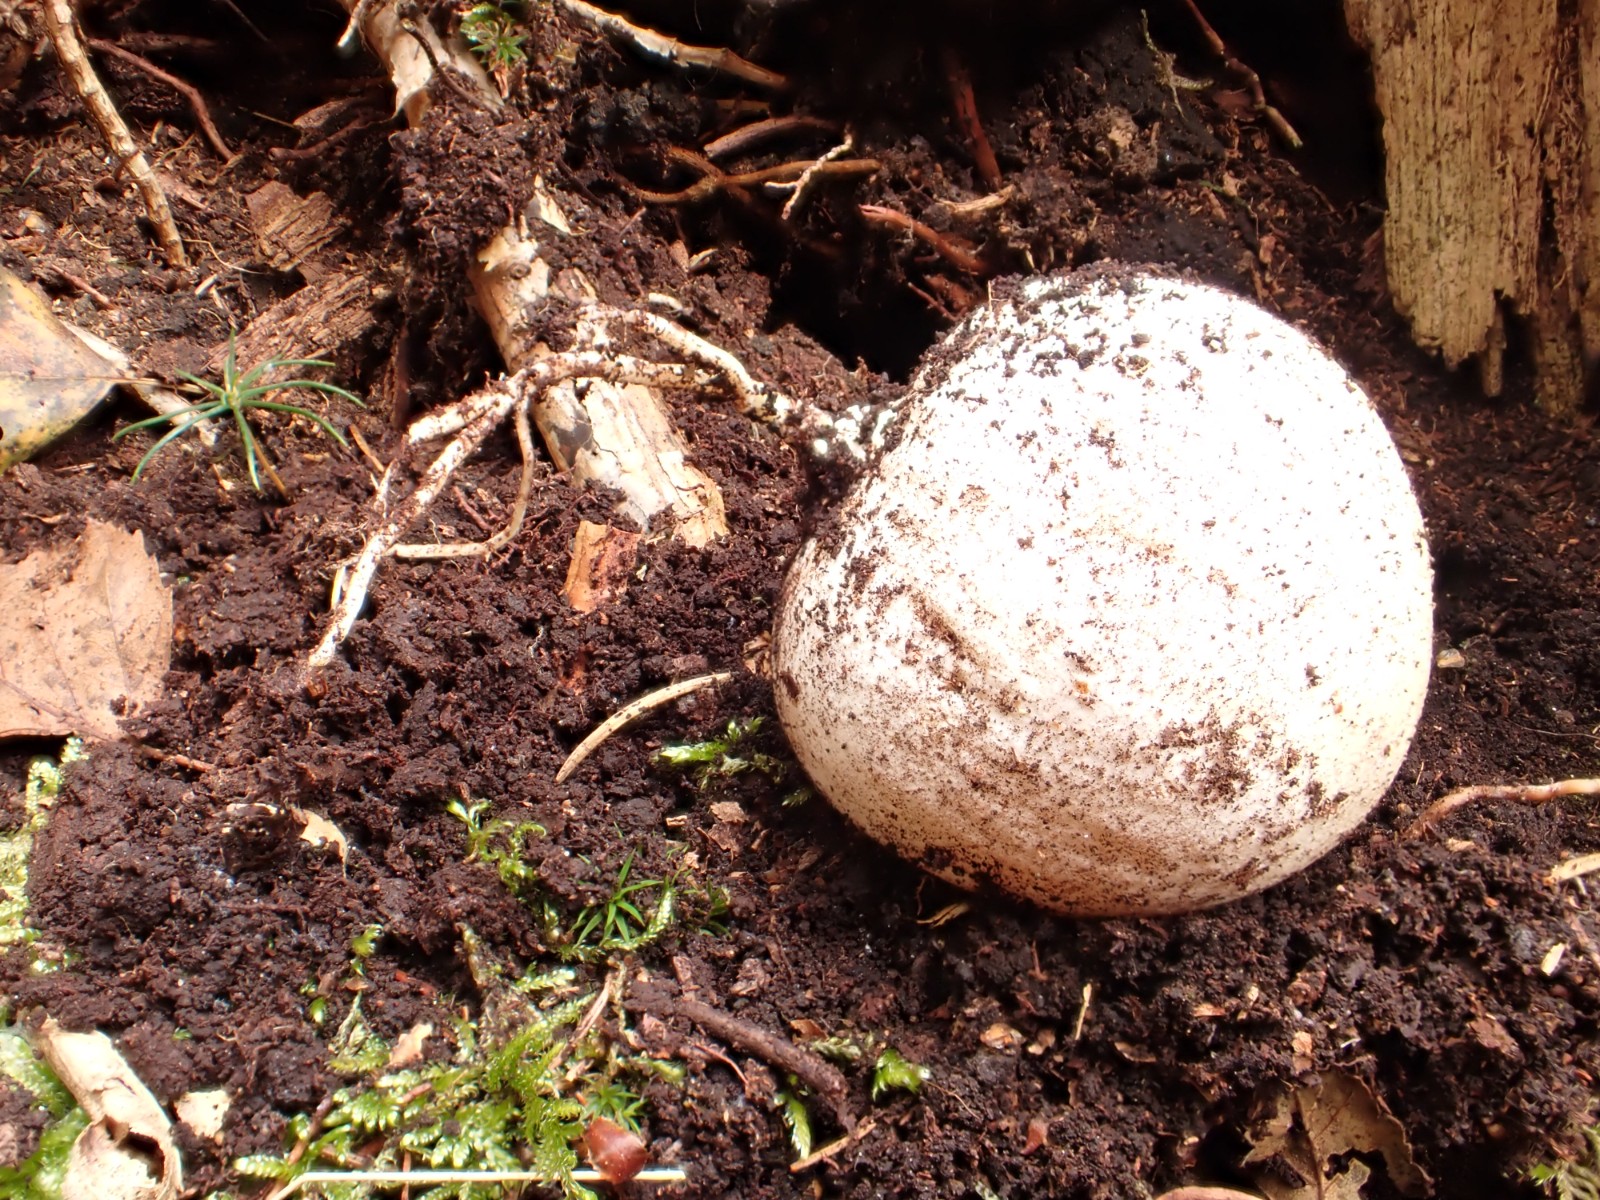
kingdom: Fungi
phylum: Basidiomycota
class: Agaricomycetes
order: Phallales
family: Phallaceae
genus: Phallus
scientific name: Phallus impudicus
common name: almindelig stinksvamp
